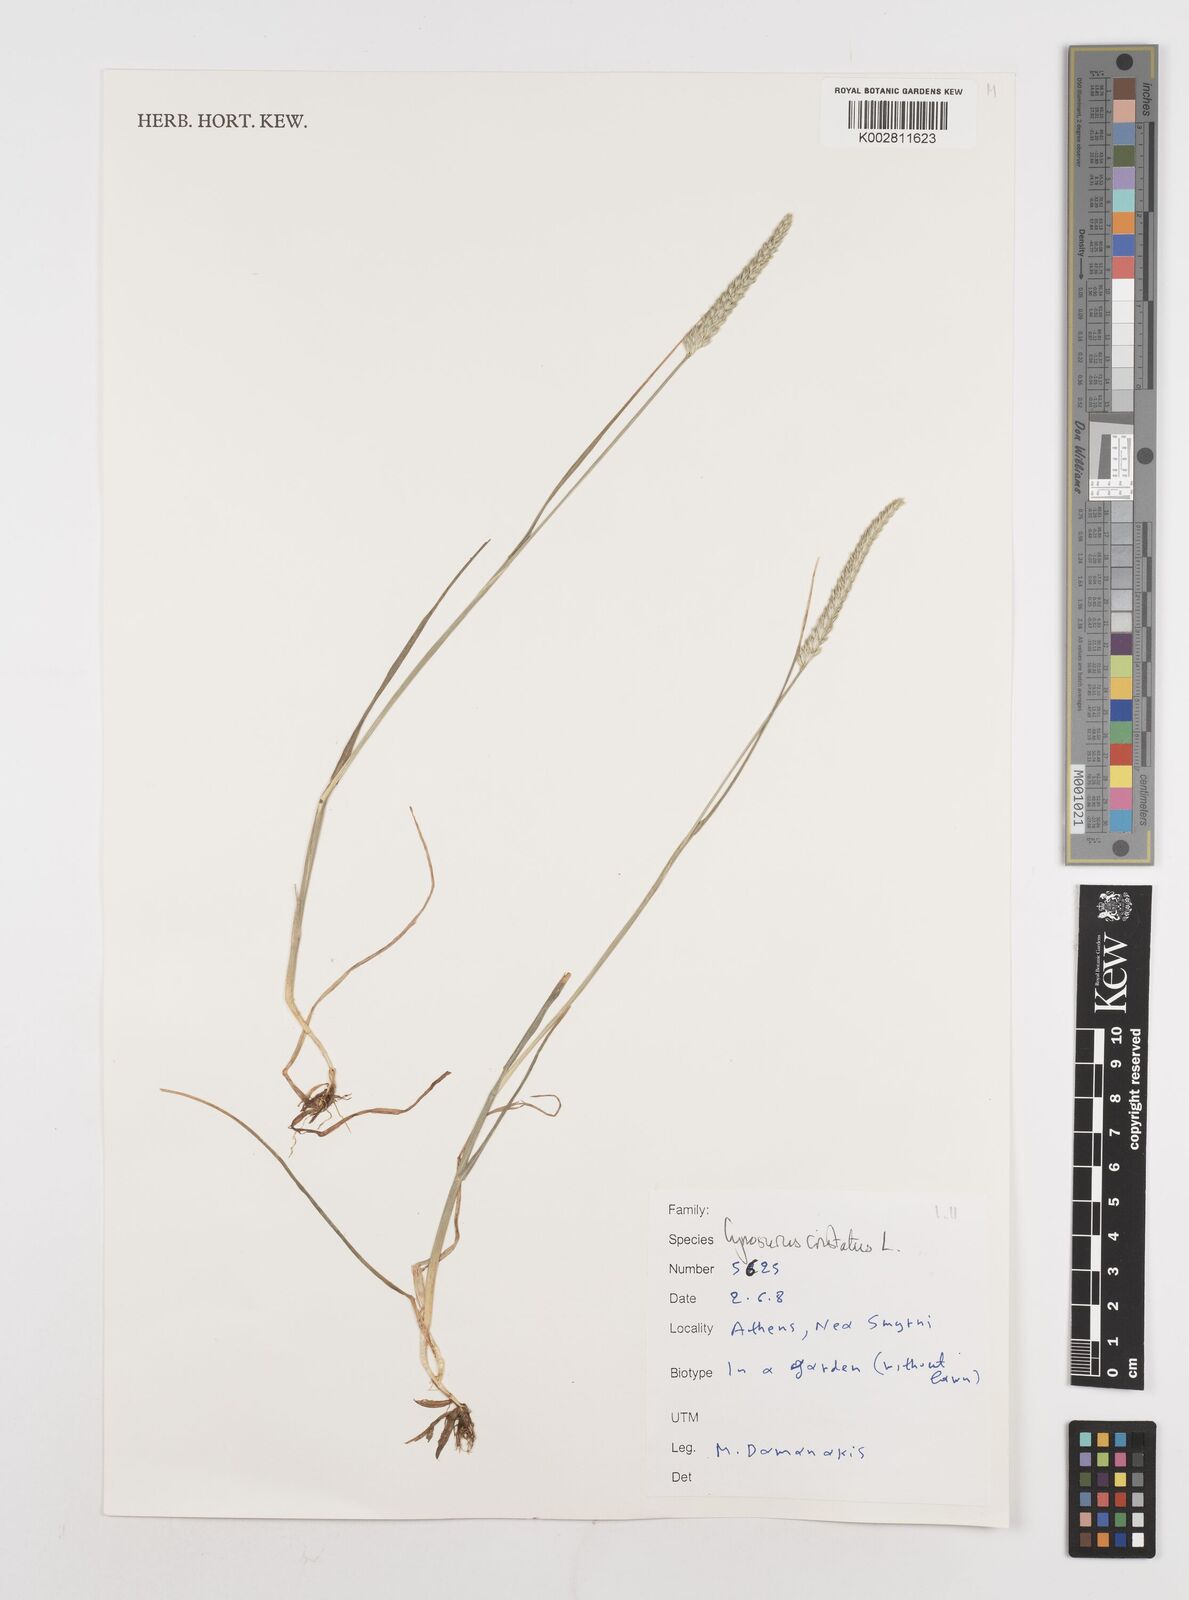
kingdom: Plantae
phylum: Tracheophyta
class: Liliopsida
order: Poales
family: Poaceae
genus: Cynosurus
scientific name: Cynosurus cristatus
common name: Crested dog's-tail
